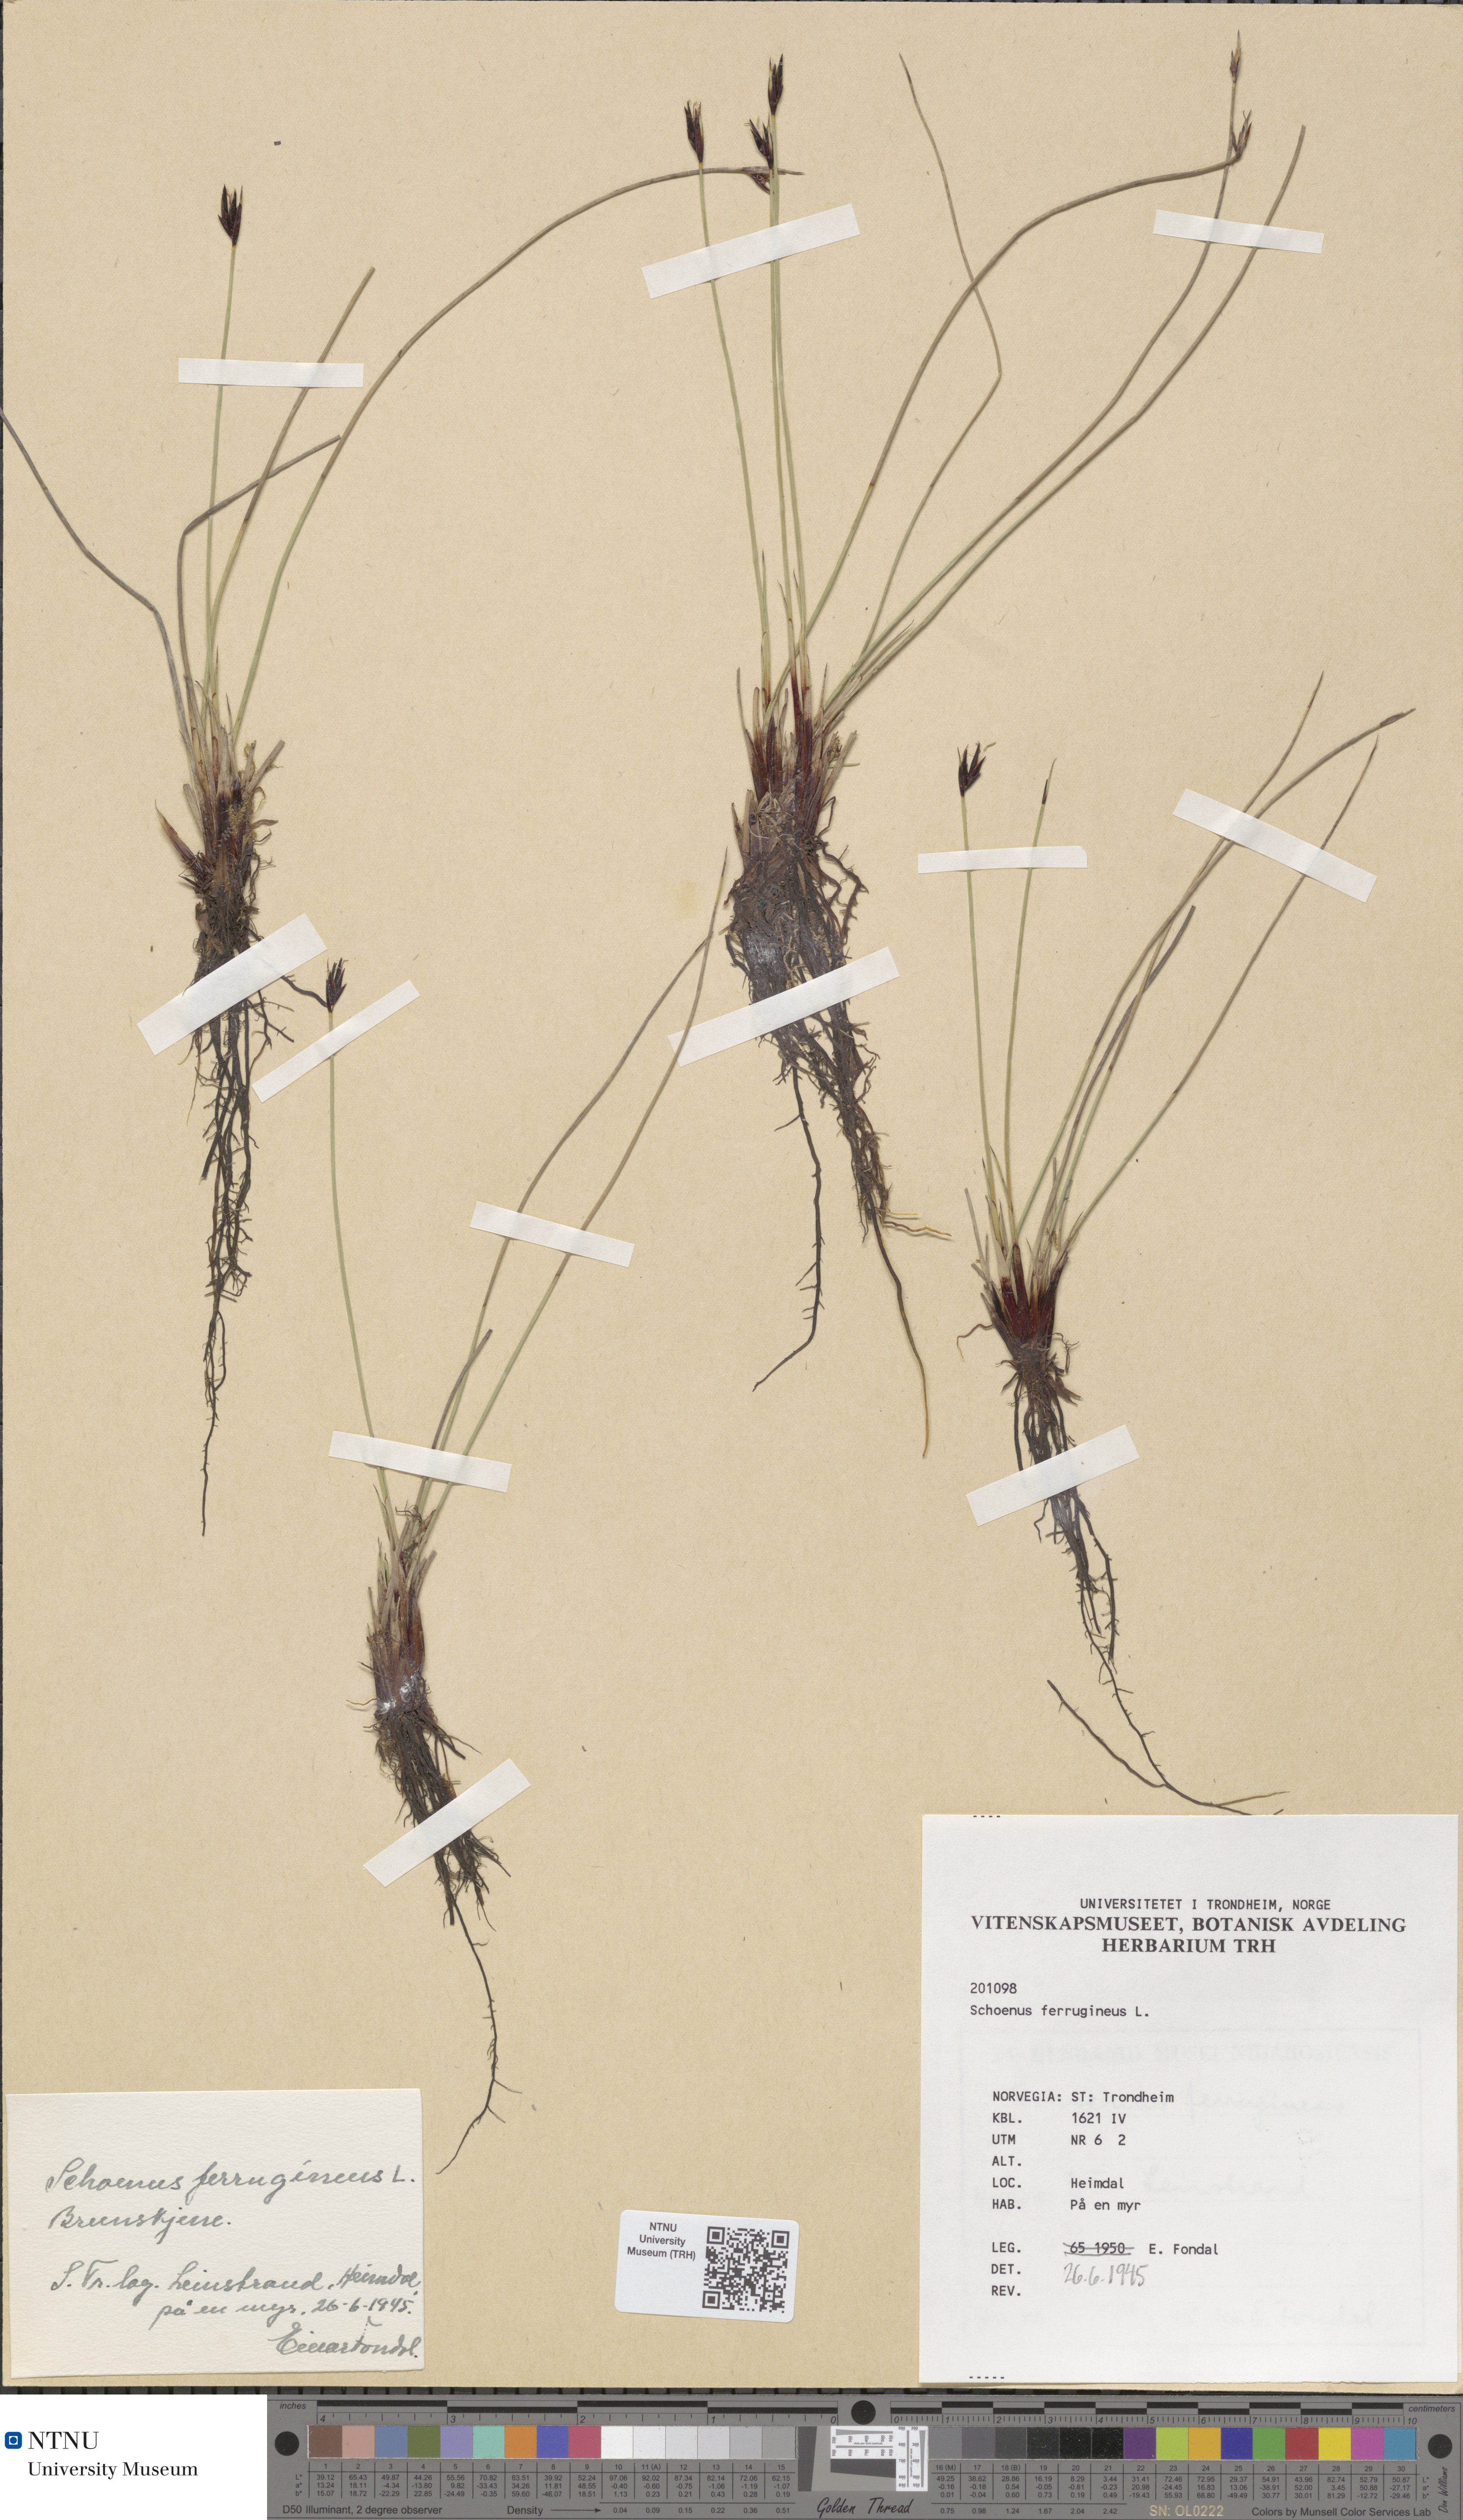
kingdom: Plantae
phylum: Tracheophyta
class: Liliopsida
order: Poales
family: Cyperaceae
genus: Schoenus
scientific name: Schoenus ferrugineus
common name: Brown bog-rush
